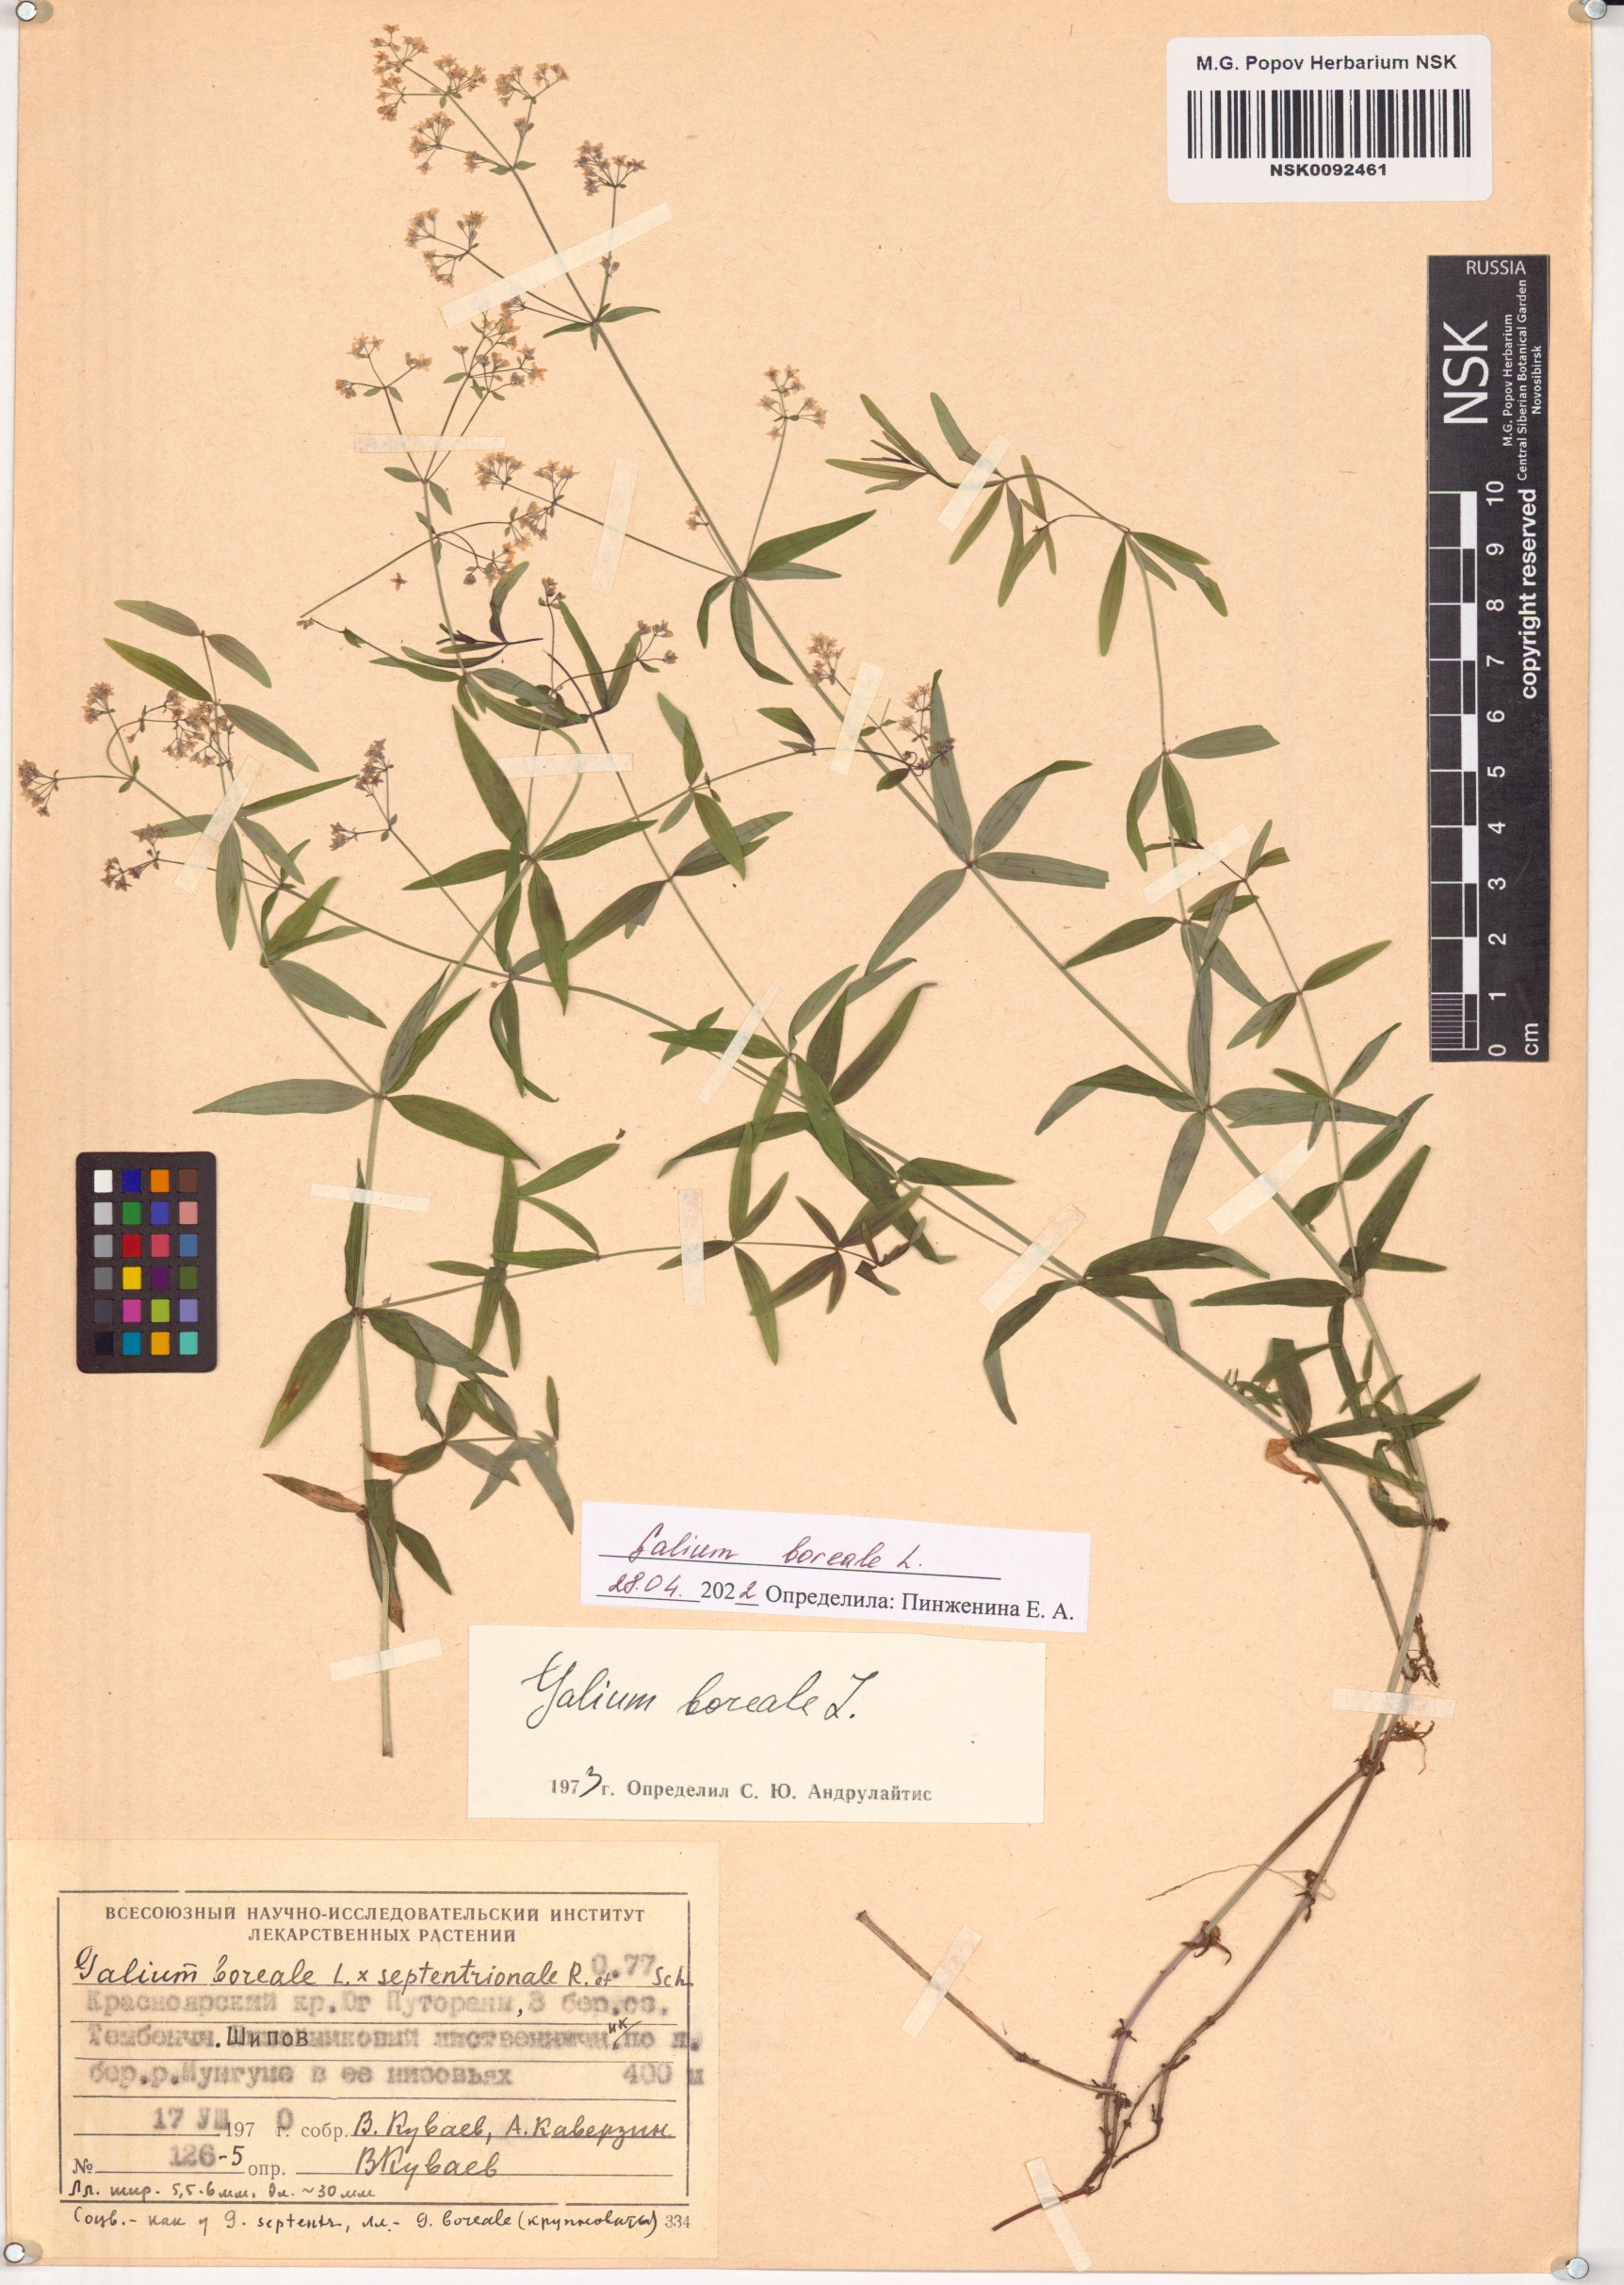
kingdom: Plantae
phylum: Tracheophyta
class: Magnoliopsida
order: Gentianales
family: Rubiaceae
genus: Galium
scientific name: Galium boreale
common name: Northern bedstraw
